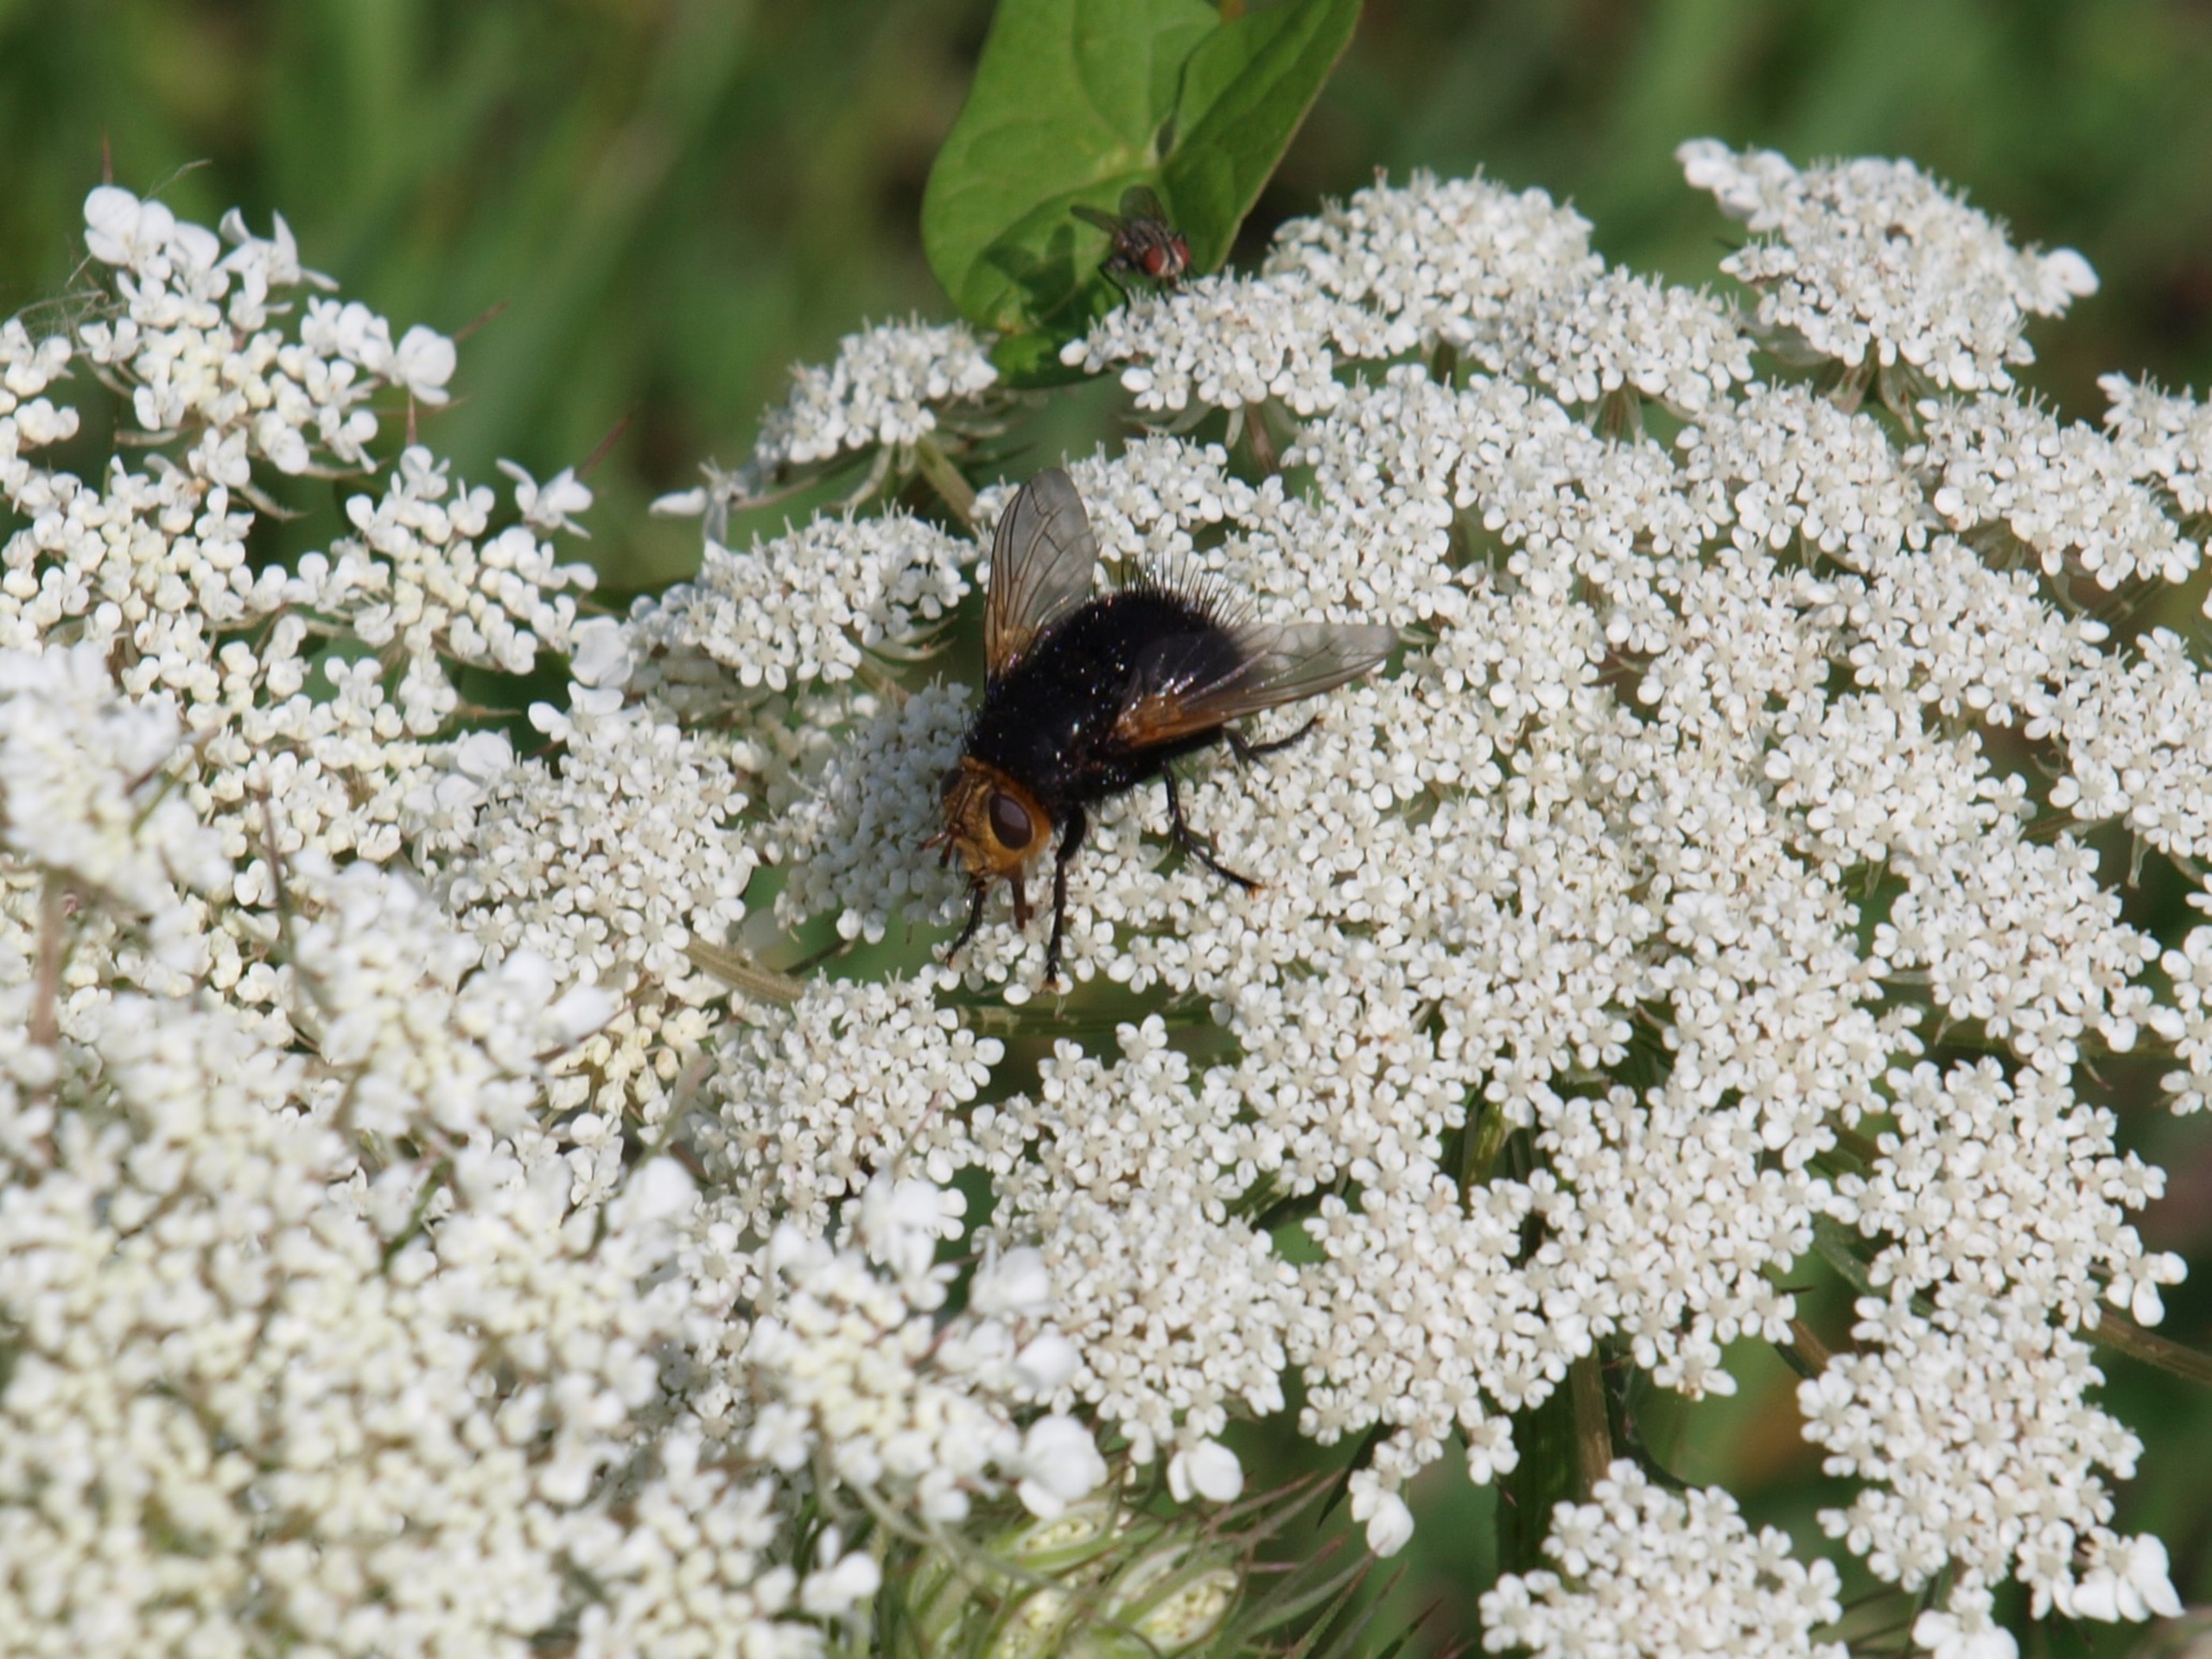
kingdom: Animalia
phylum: Arthropoda
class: Insecta
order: Diptera
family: Tachinidae
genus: Tachina
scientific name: Tachina grossa
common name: Kæmpefluen Harald
